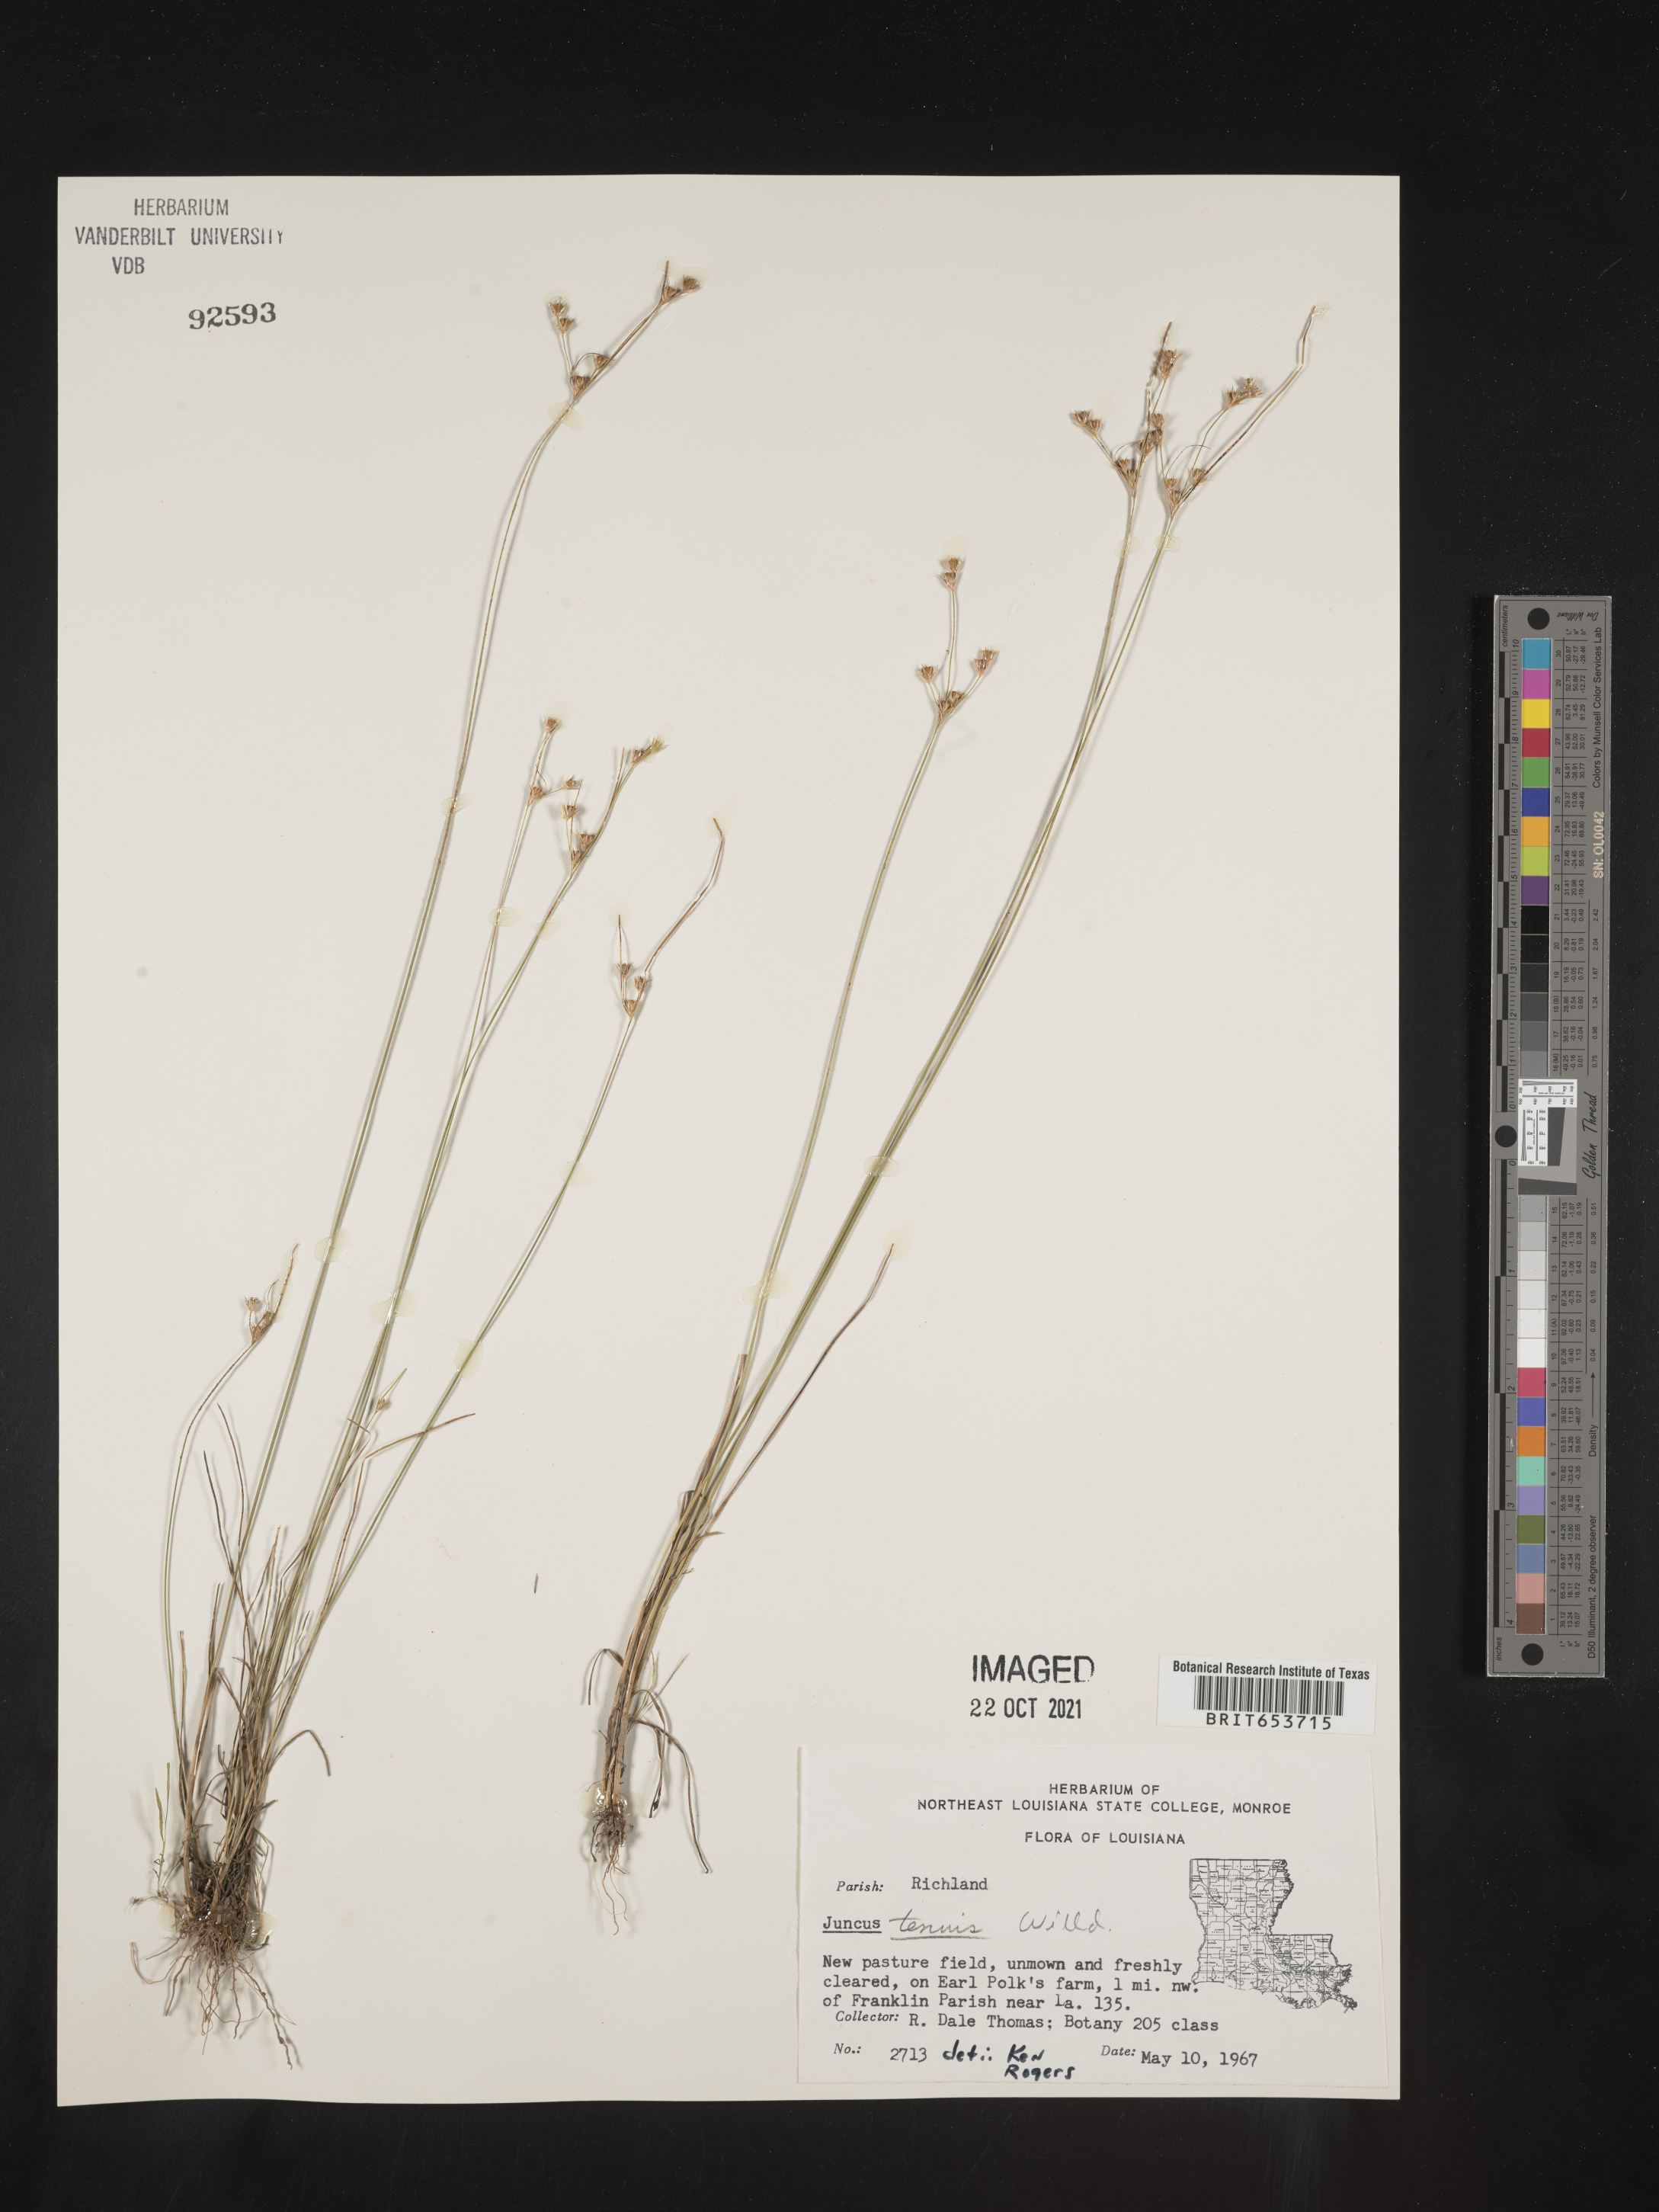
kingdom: Plantae
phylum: Tracheophyta
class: Liliopsida
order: Poales
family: Juncaceae
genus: Juncus
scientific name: Juncus tenuis
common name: Slender rush
